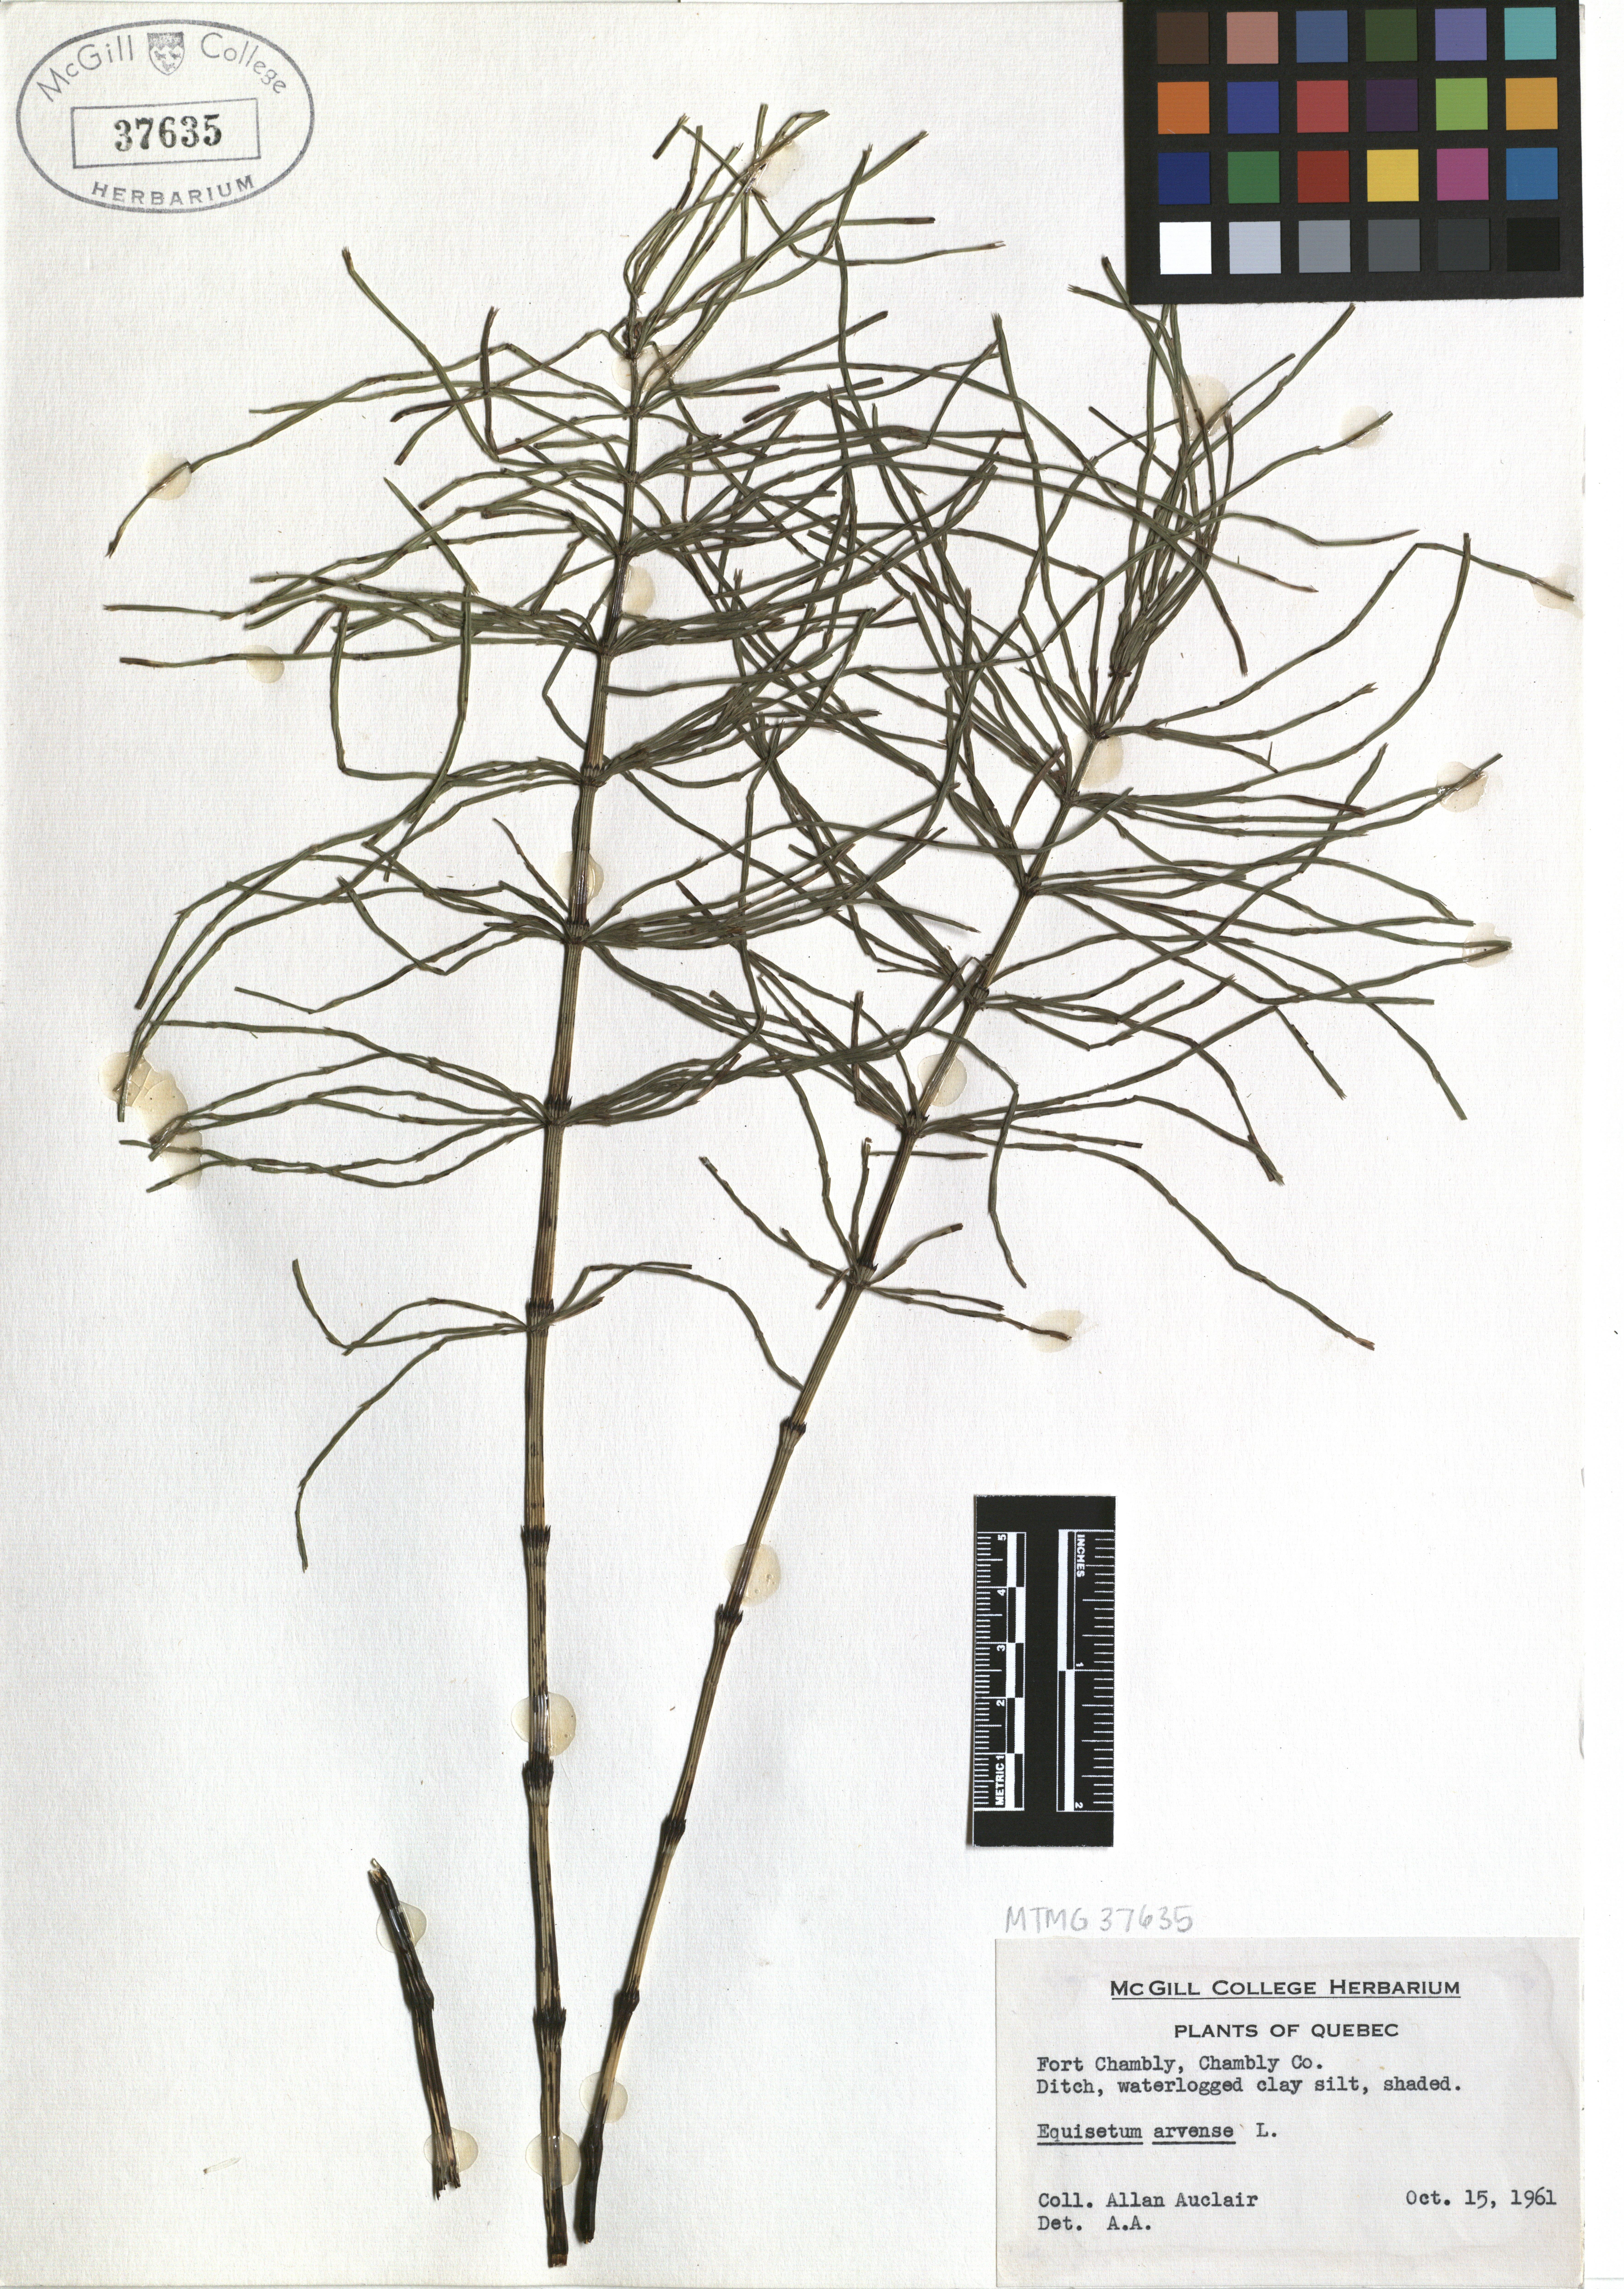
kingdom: Plantae
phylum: Tracheophyta
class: Polypodiopsida
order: Equisetales
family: Equisetaceae
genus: Equisetum
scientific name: Equisetum arvense
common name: Field horsetail
